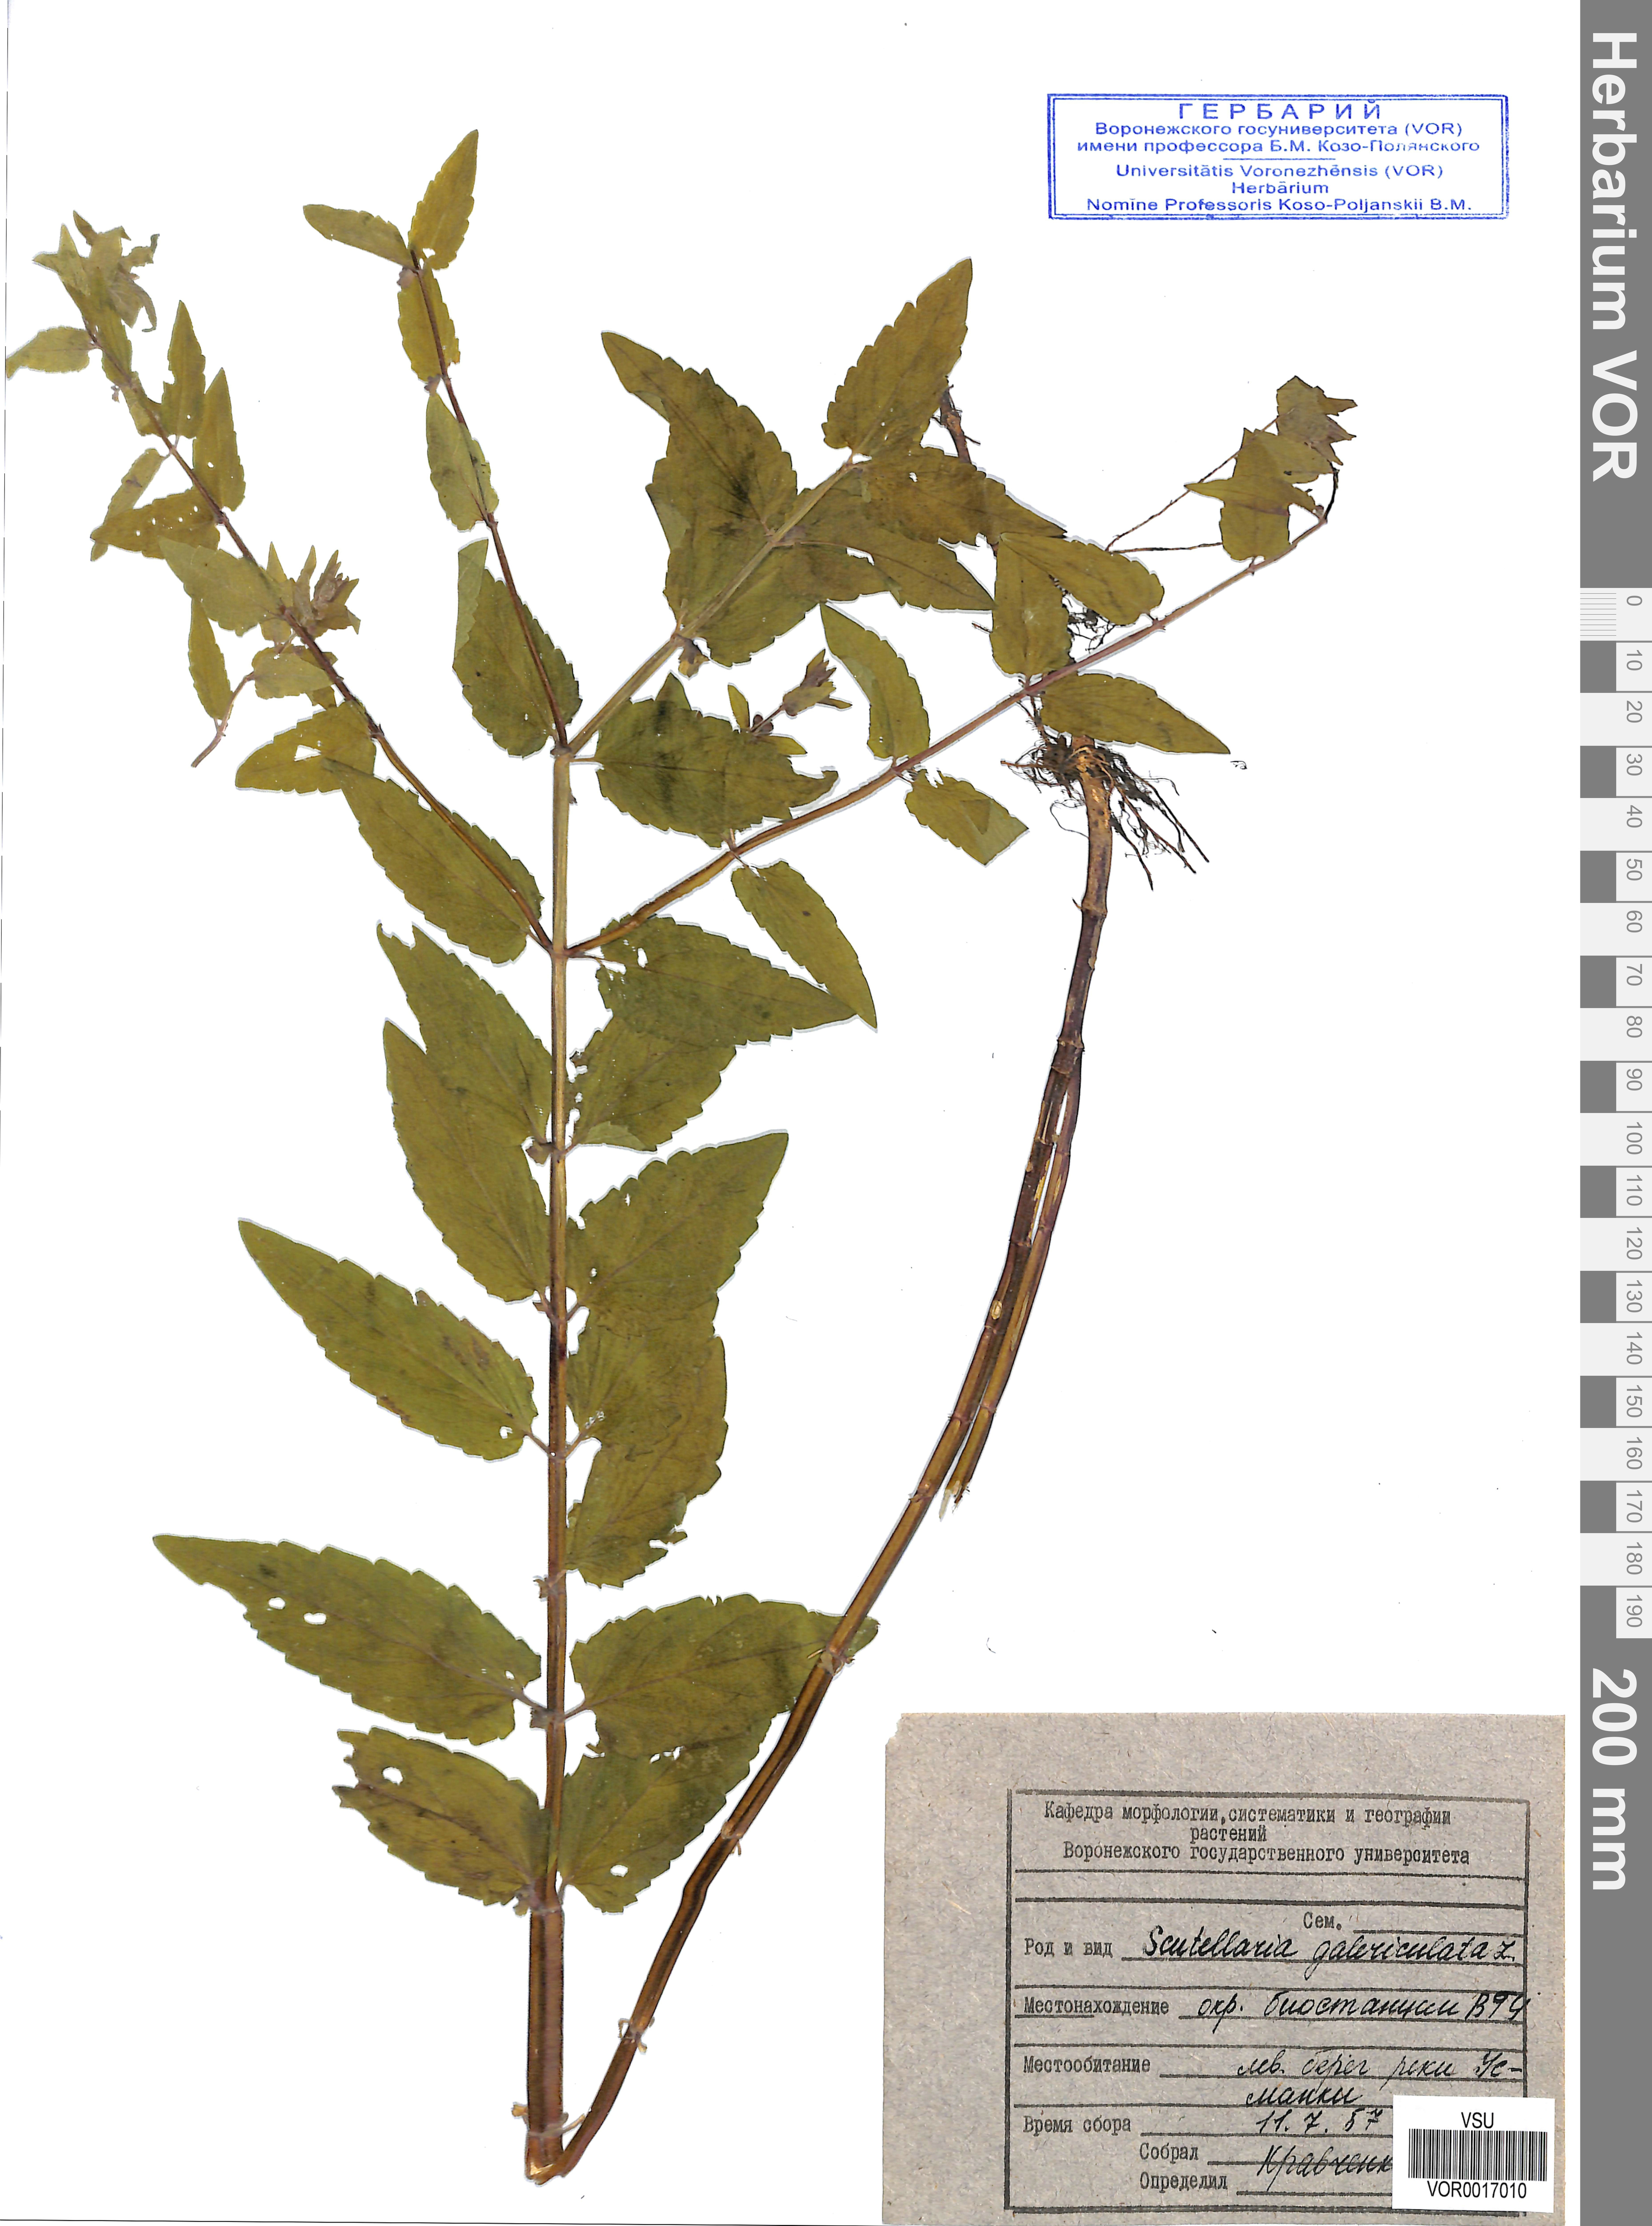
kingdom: Plantae
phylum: Tracheophyta
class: Magnoliopsida
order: Lamiales
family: Lamiaceae
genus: Scutellaria
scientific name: Scutellaria galericulata
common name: Skullcap
